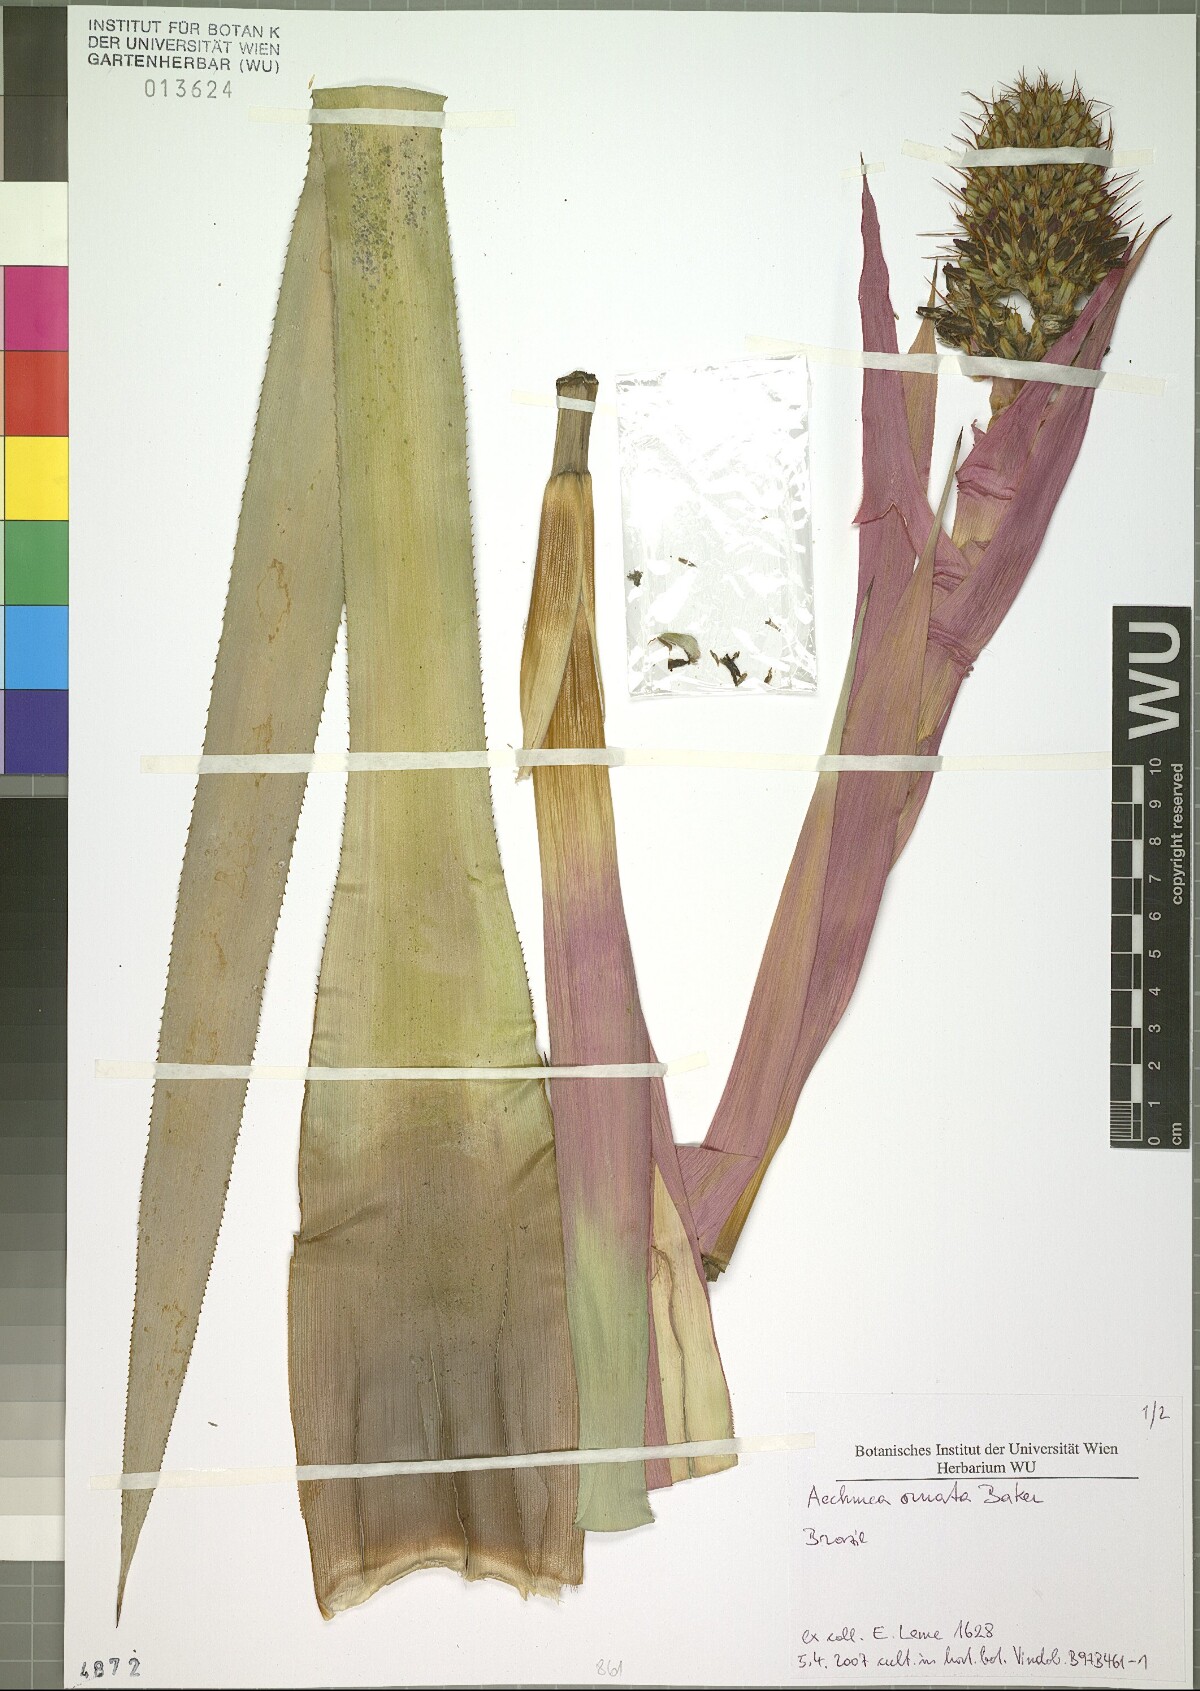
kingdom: Plantae
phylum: Tracheophyta
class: Liliopsida
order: Poales
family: Bromeliaceae
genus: Aechmea
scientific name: Aechmea ornata
